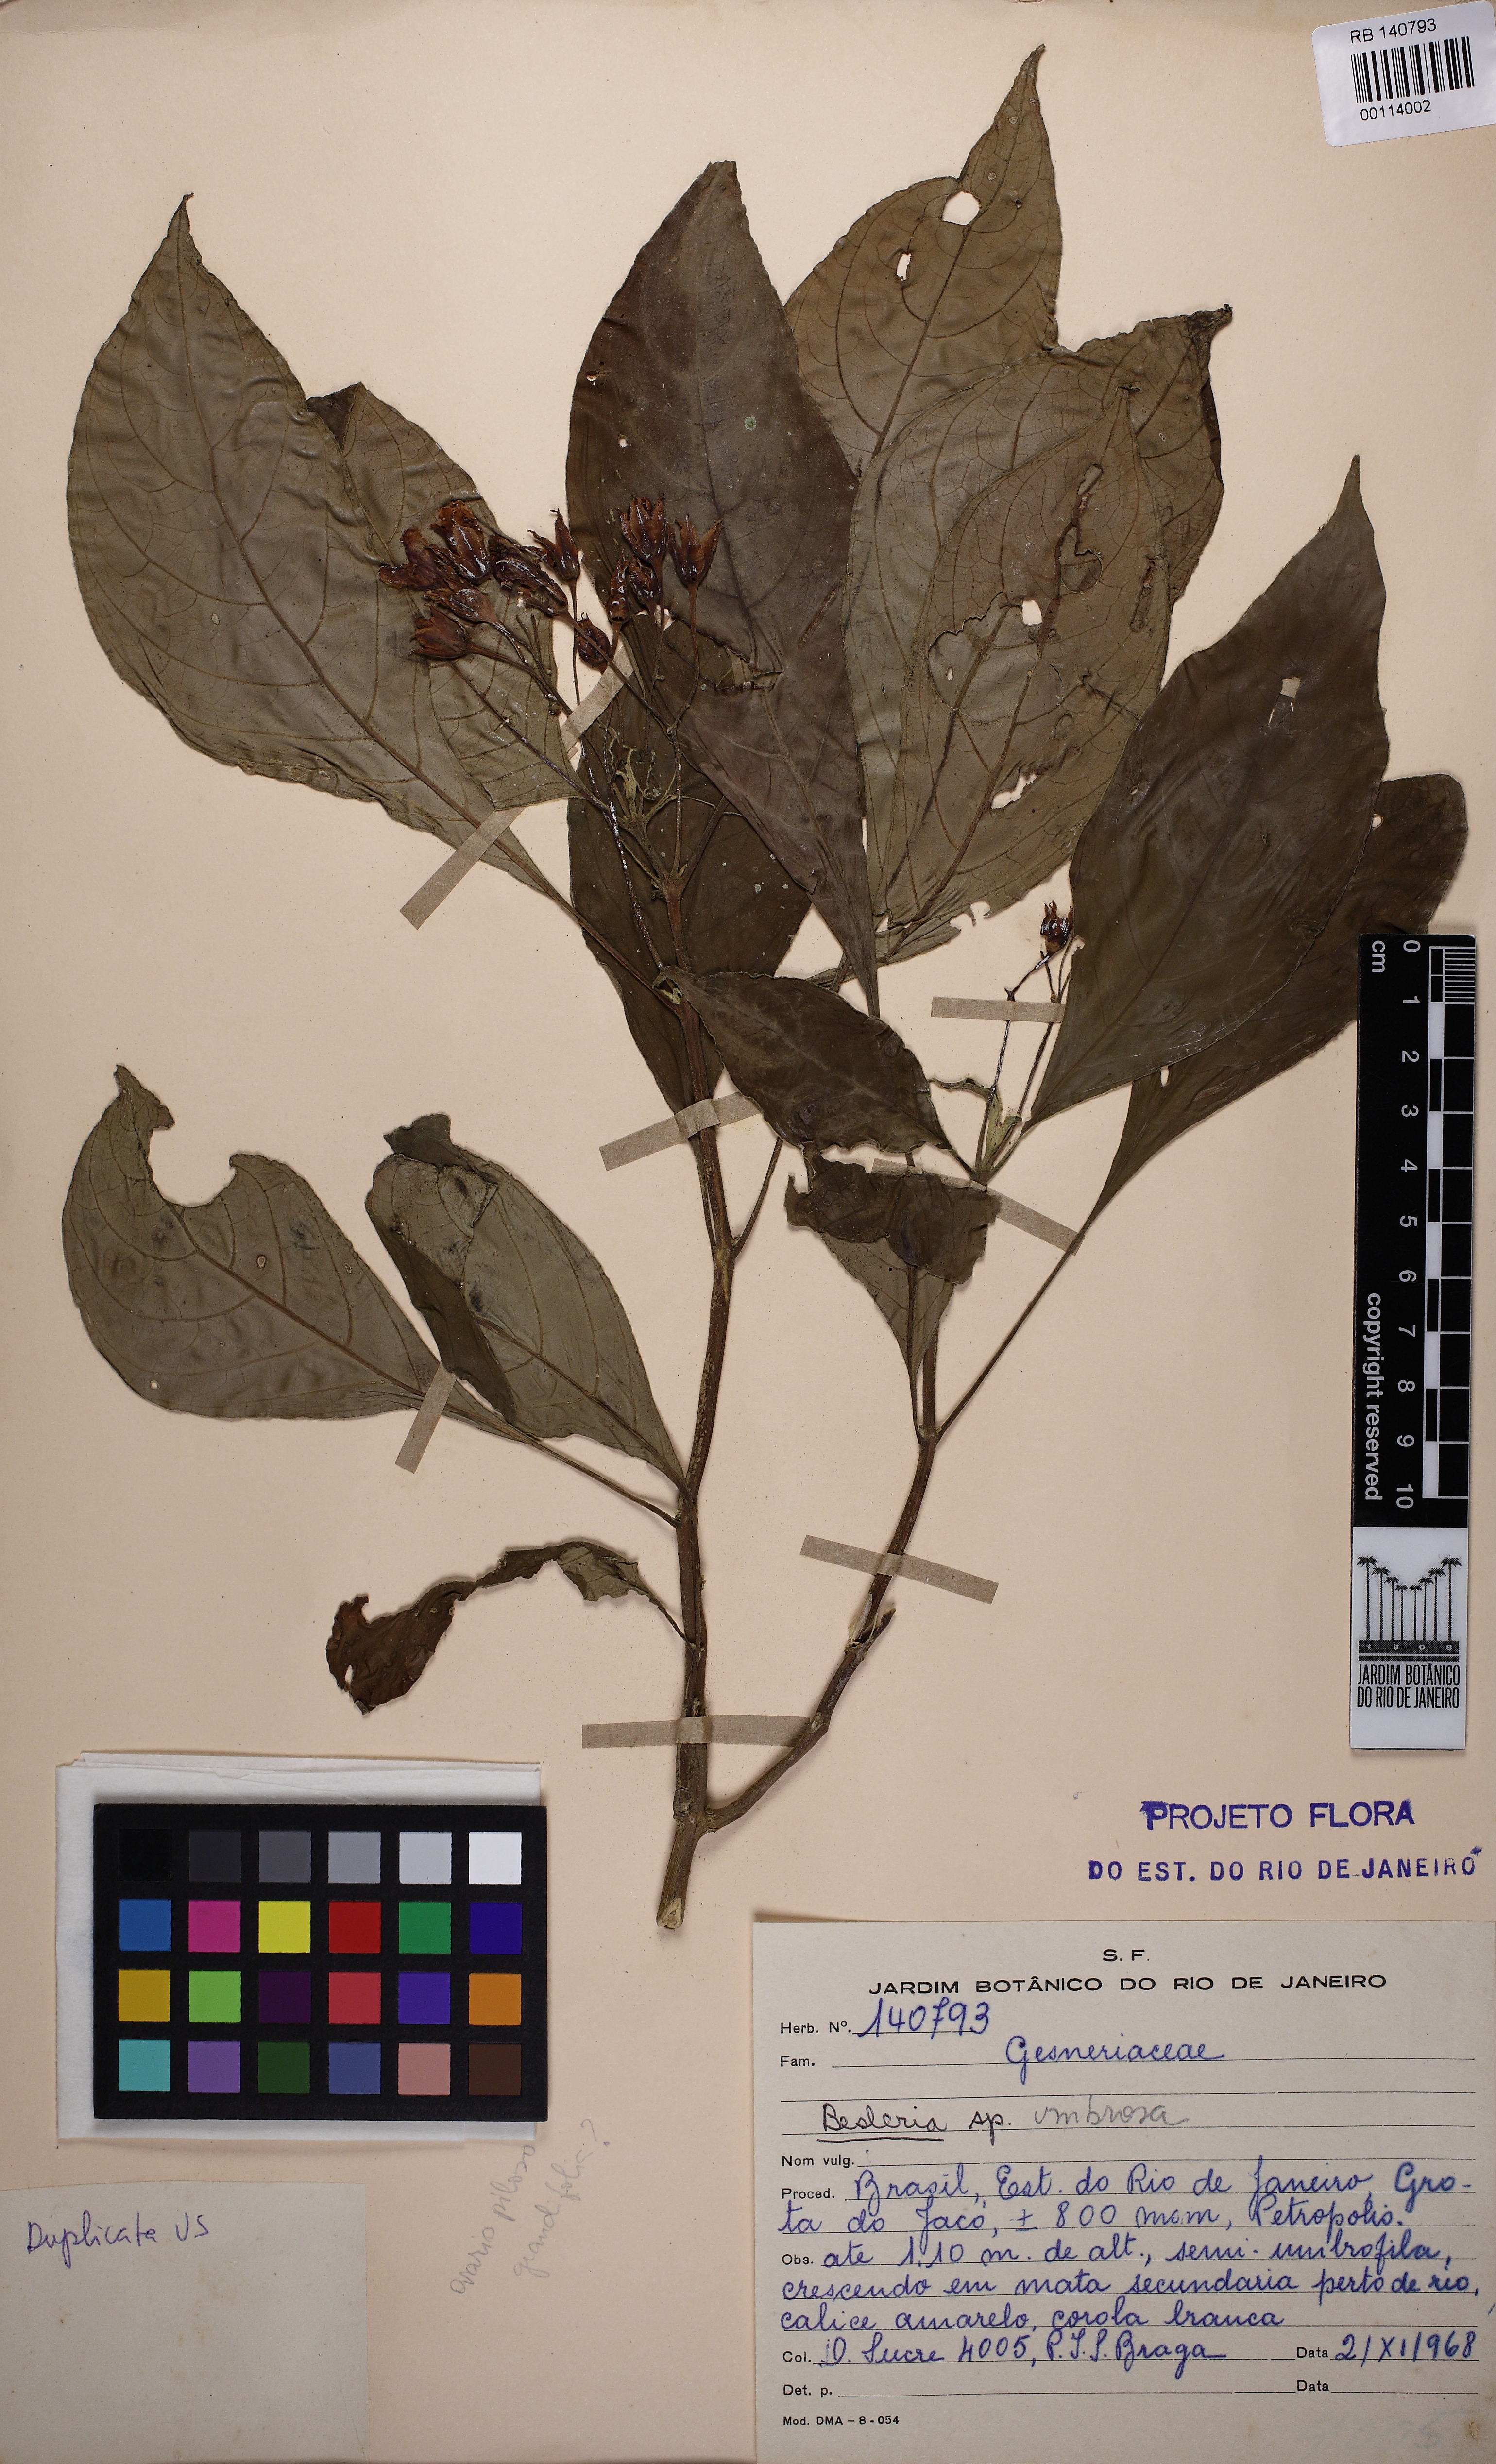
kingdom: Plantae
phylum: Tracheophyta
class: Magnoliopsida
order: Lamiales
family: Gesneriaceae
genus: Besleria
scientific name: Besleria umbrosa
